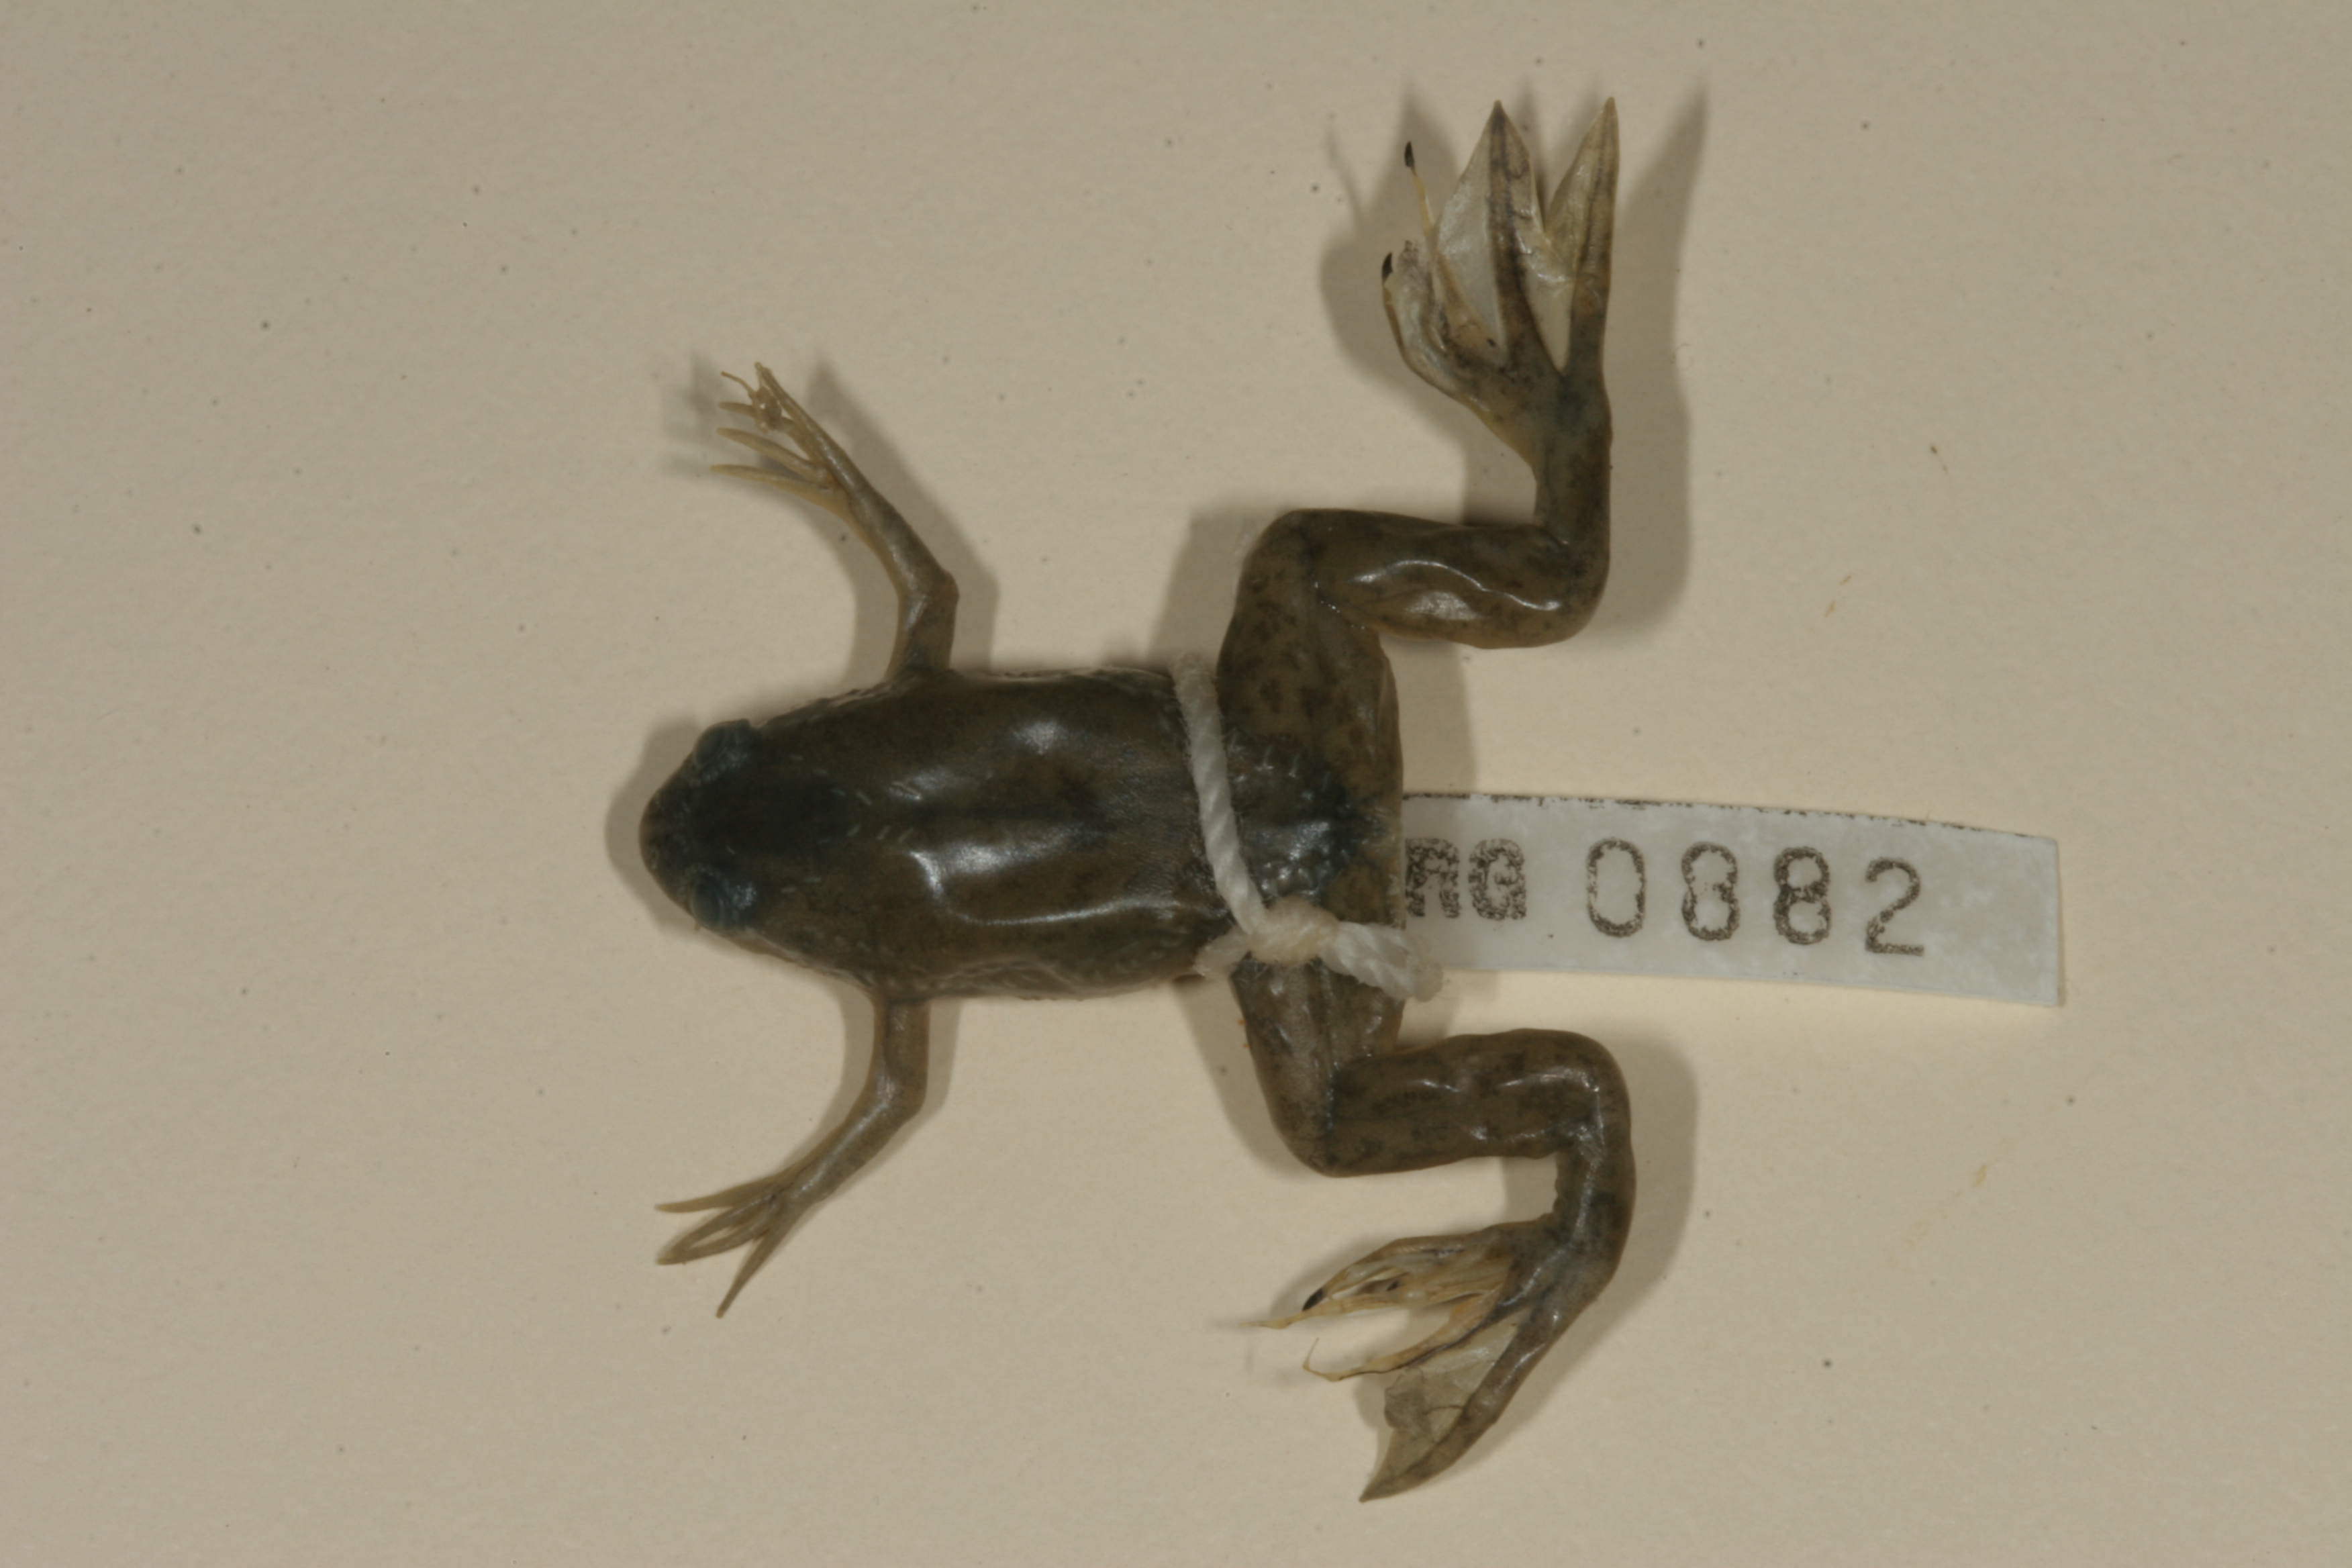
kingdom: Animalia
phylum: Chordata
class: Amphibia
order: Anura
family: Pipidae
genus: Xenopus
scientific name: Xenopus laevis
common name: African clawed frog
